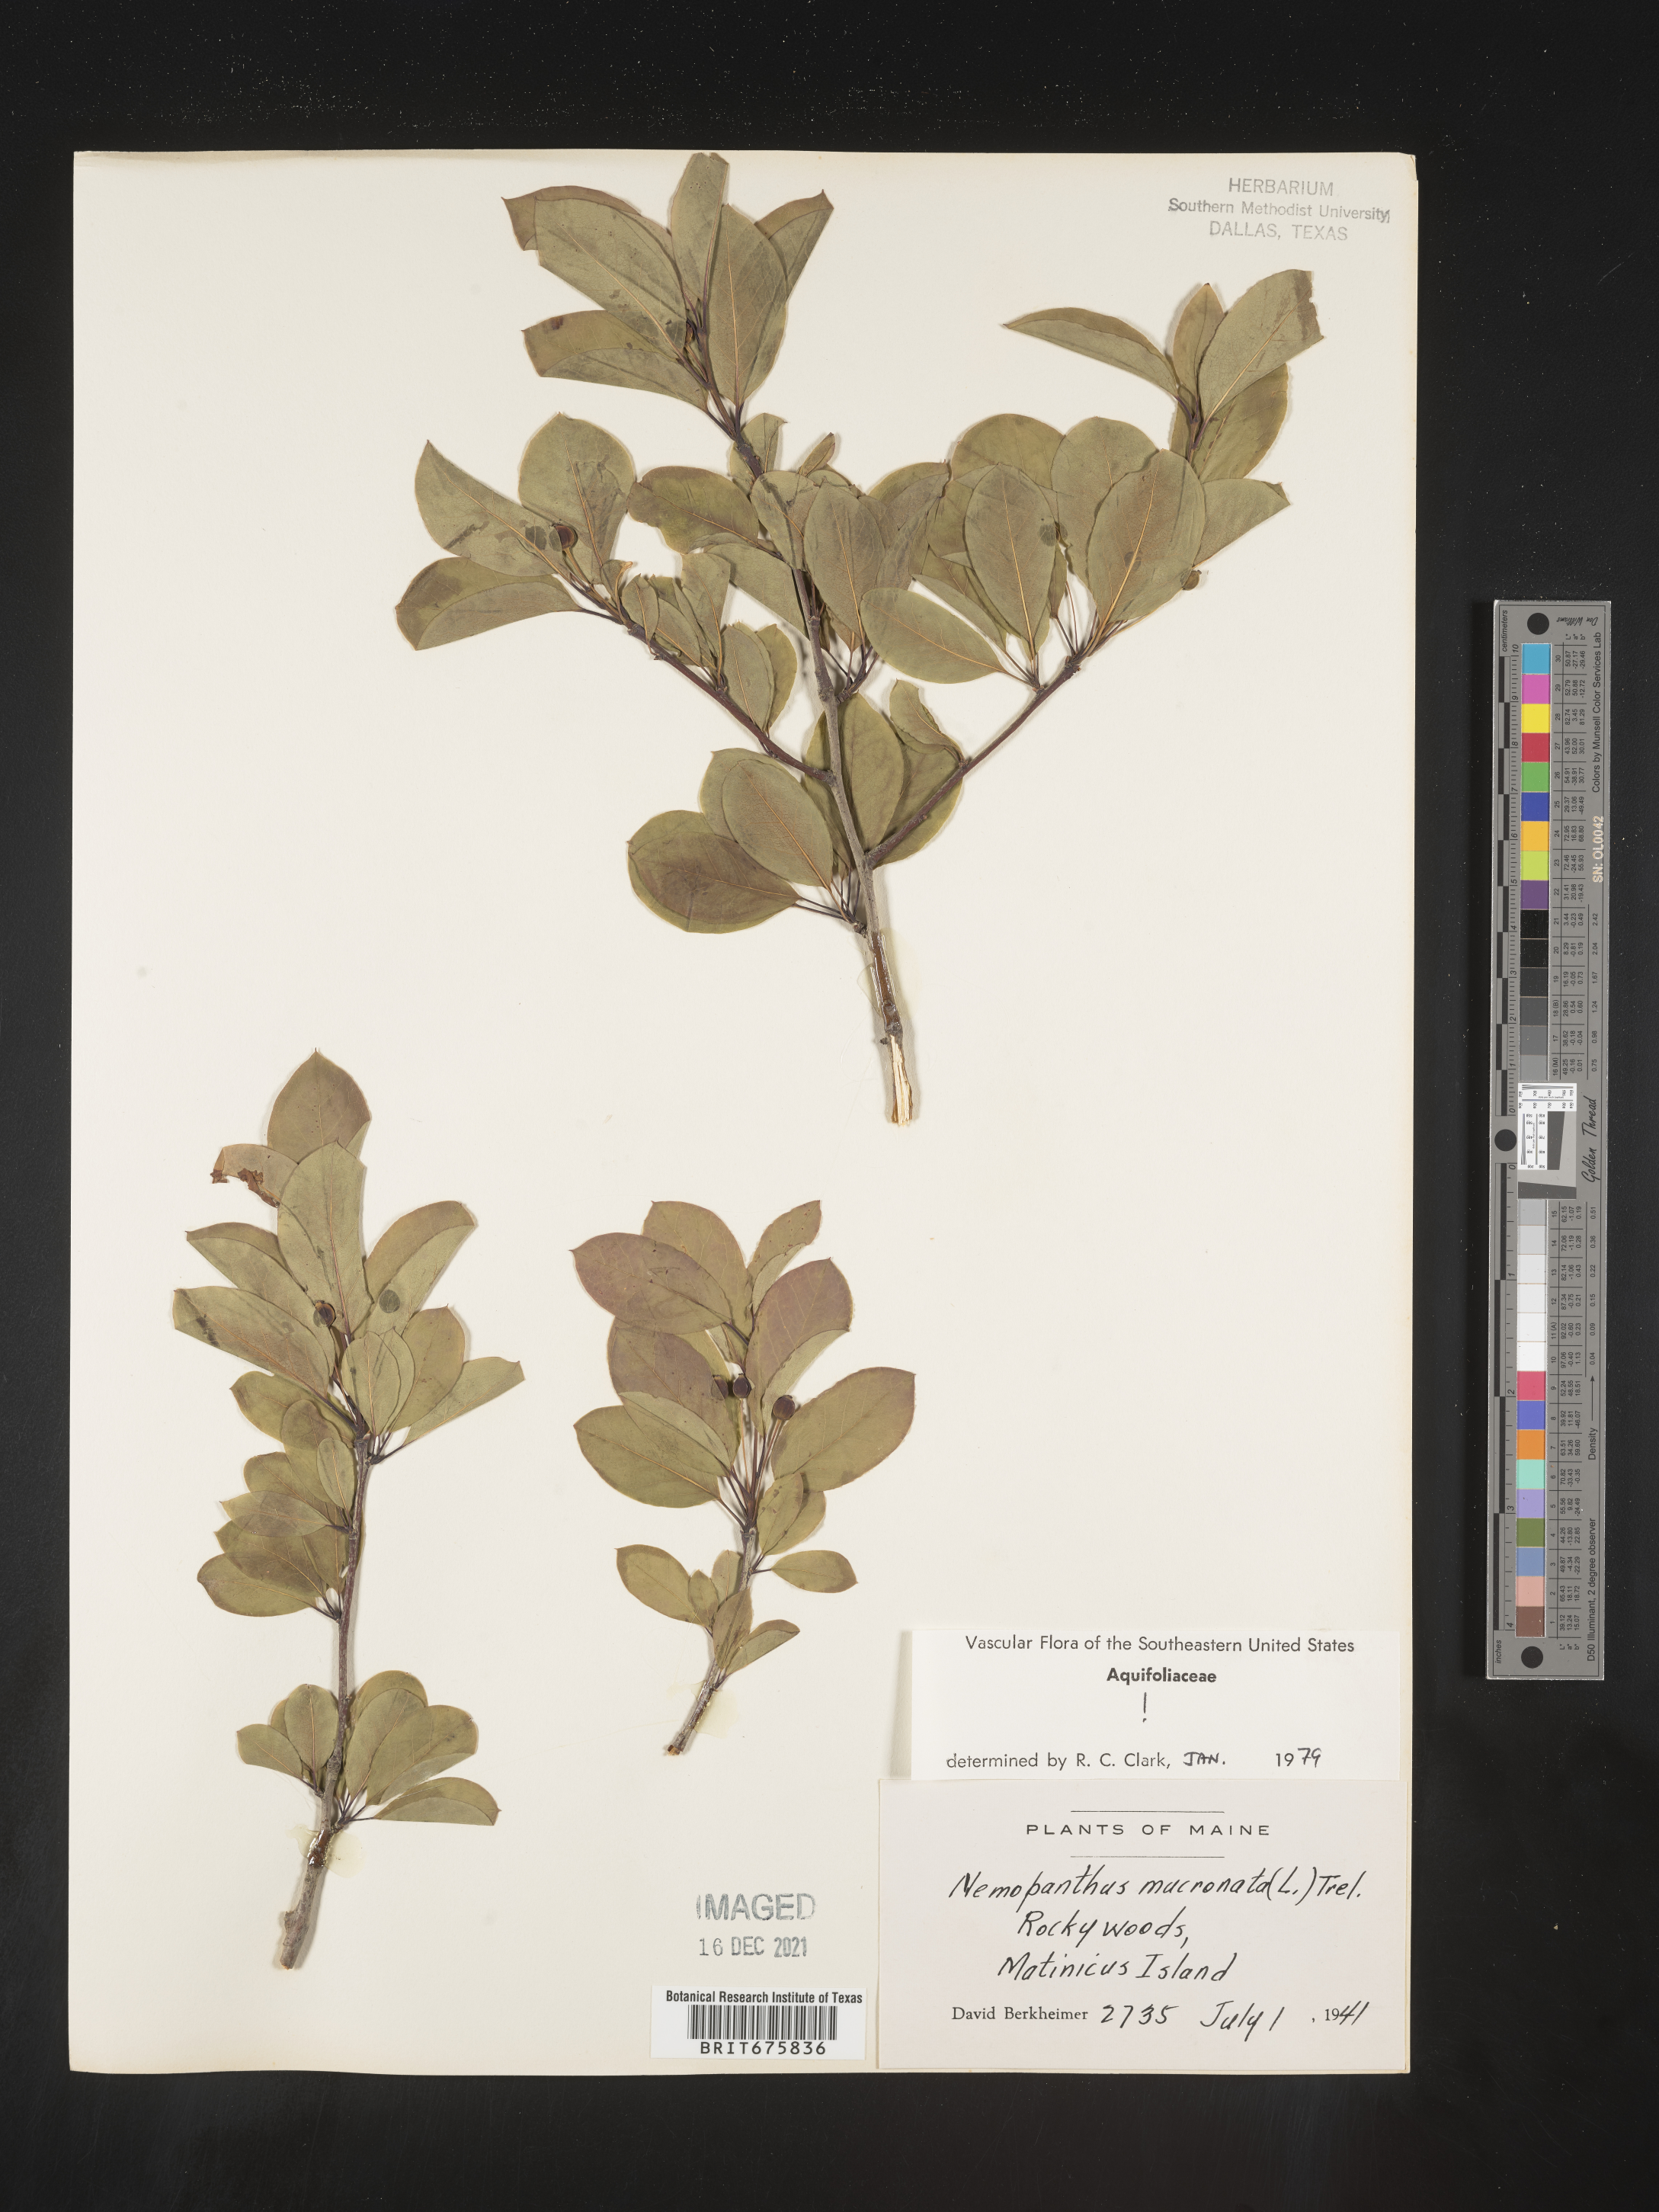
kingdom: Plantae
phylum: Tracheophyta
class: Magnoliopsida
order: Aquifoliales
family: Aquifoliaceae
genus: Ilex
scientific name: Ilex mucronata
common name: Catberry
